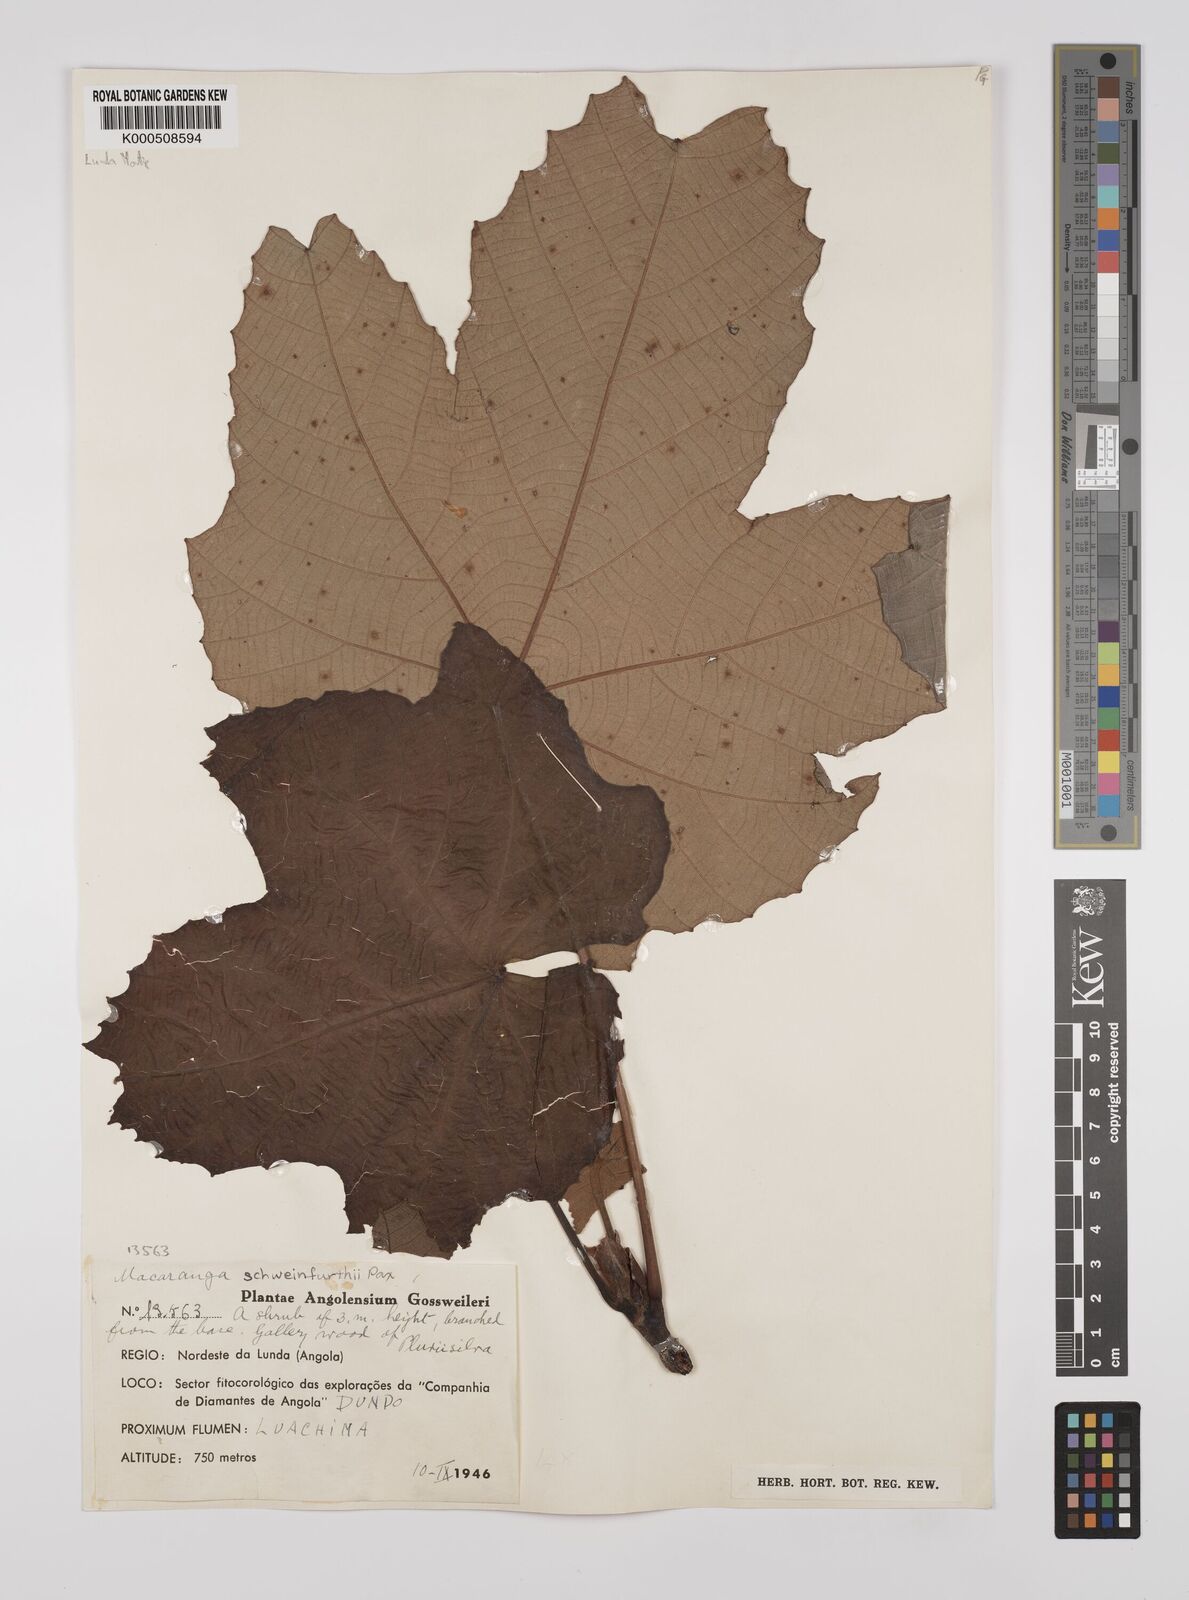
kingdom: Plantae
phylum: Tracheophyta
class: Magnoliopsida
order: Malpighiales
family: Euphorbiaceae
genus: Macaranga
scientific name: Macaranga
